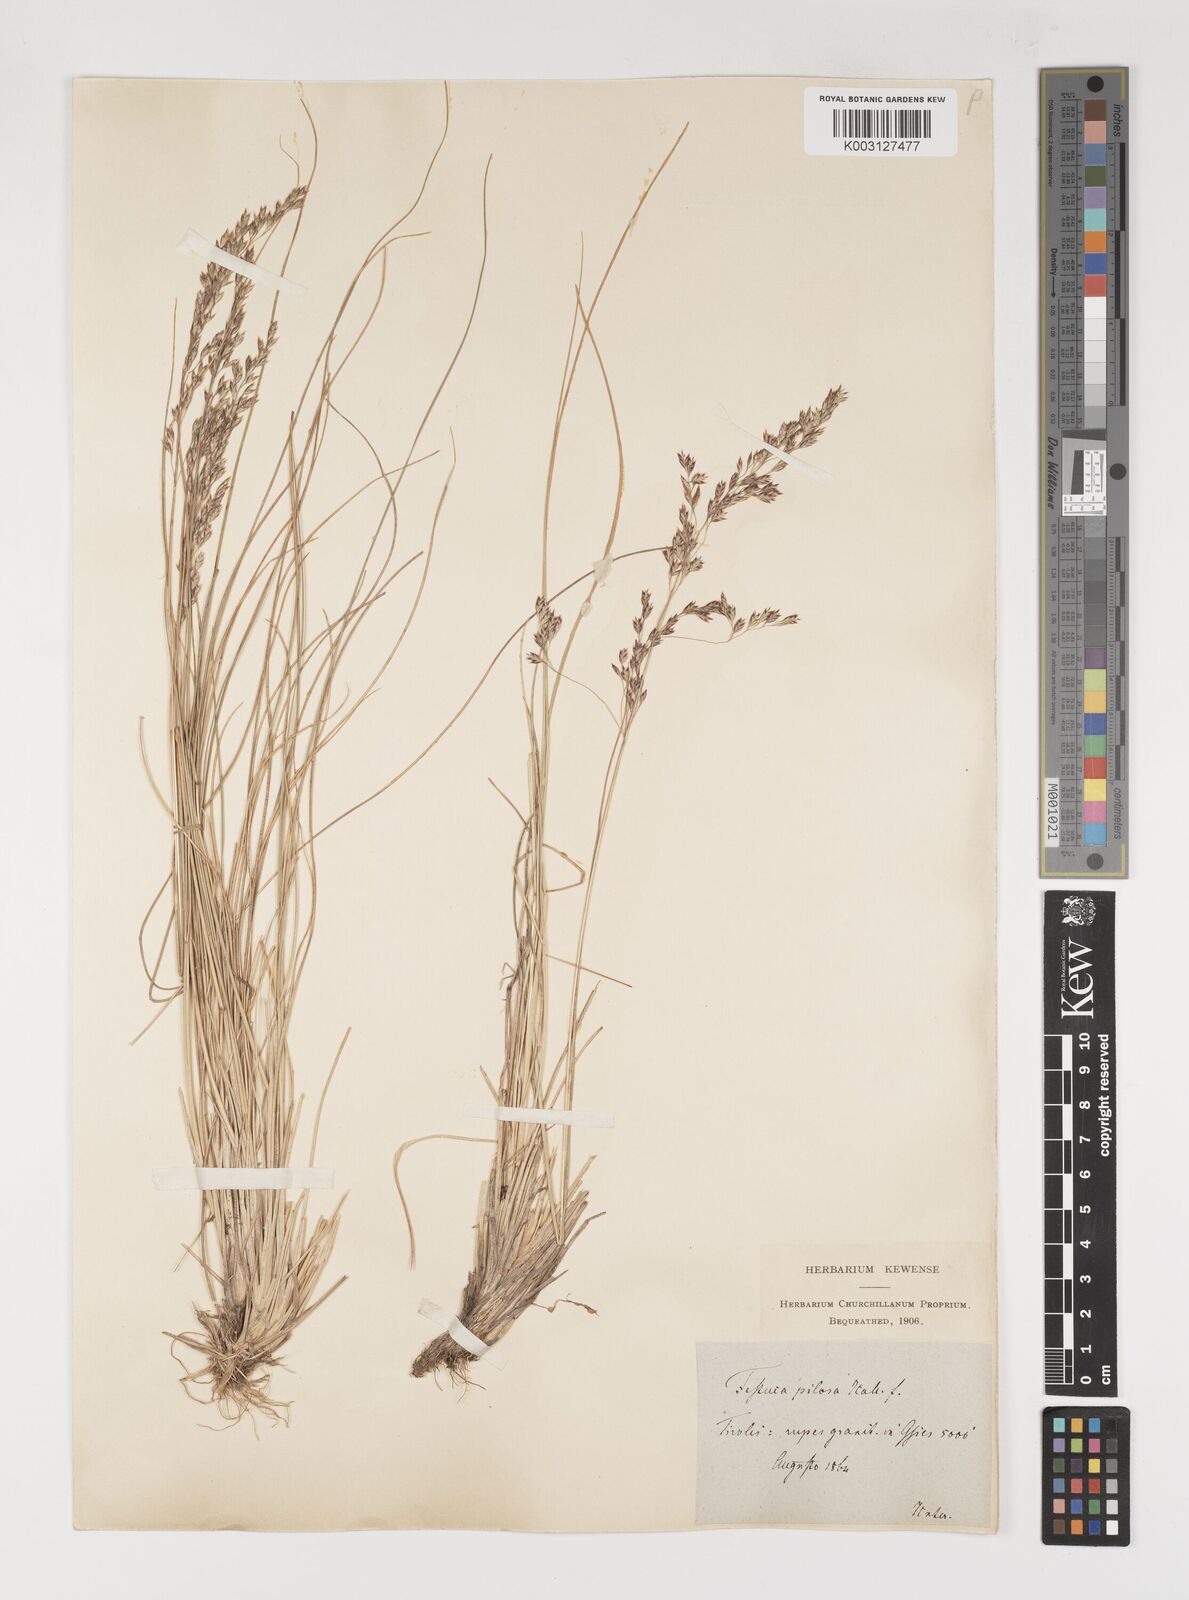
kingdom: Plantae
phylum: Tracheophyta
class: Liliopsida
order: Poales
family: Poaceae
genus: Bellardiochloa
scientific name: Bellardiochloa variegata
